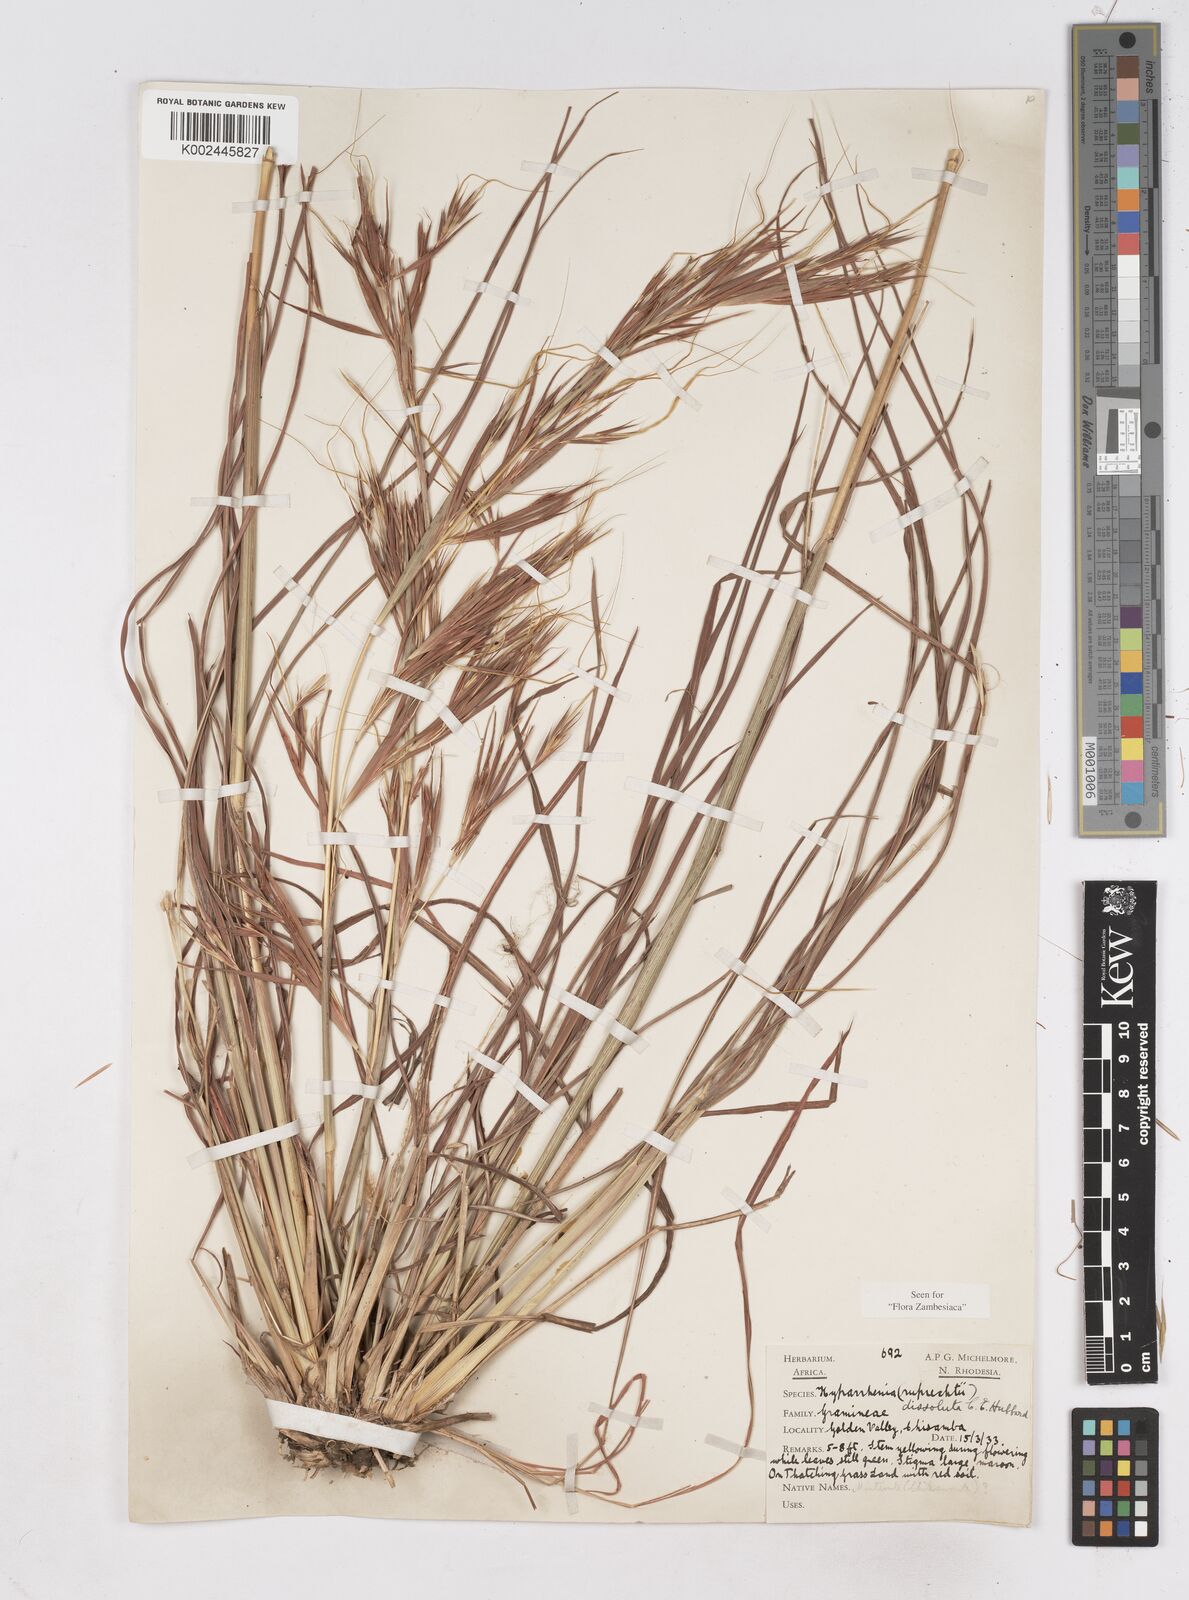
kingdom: Plantae
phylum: Tracheophyta
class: Liliopsida
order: Poales
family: Poaceae
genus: Hyperthelia
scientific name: Hyperthelia dissoluta
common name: Yellow thatching grass
